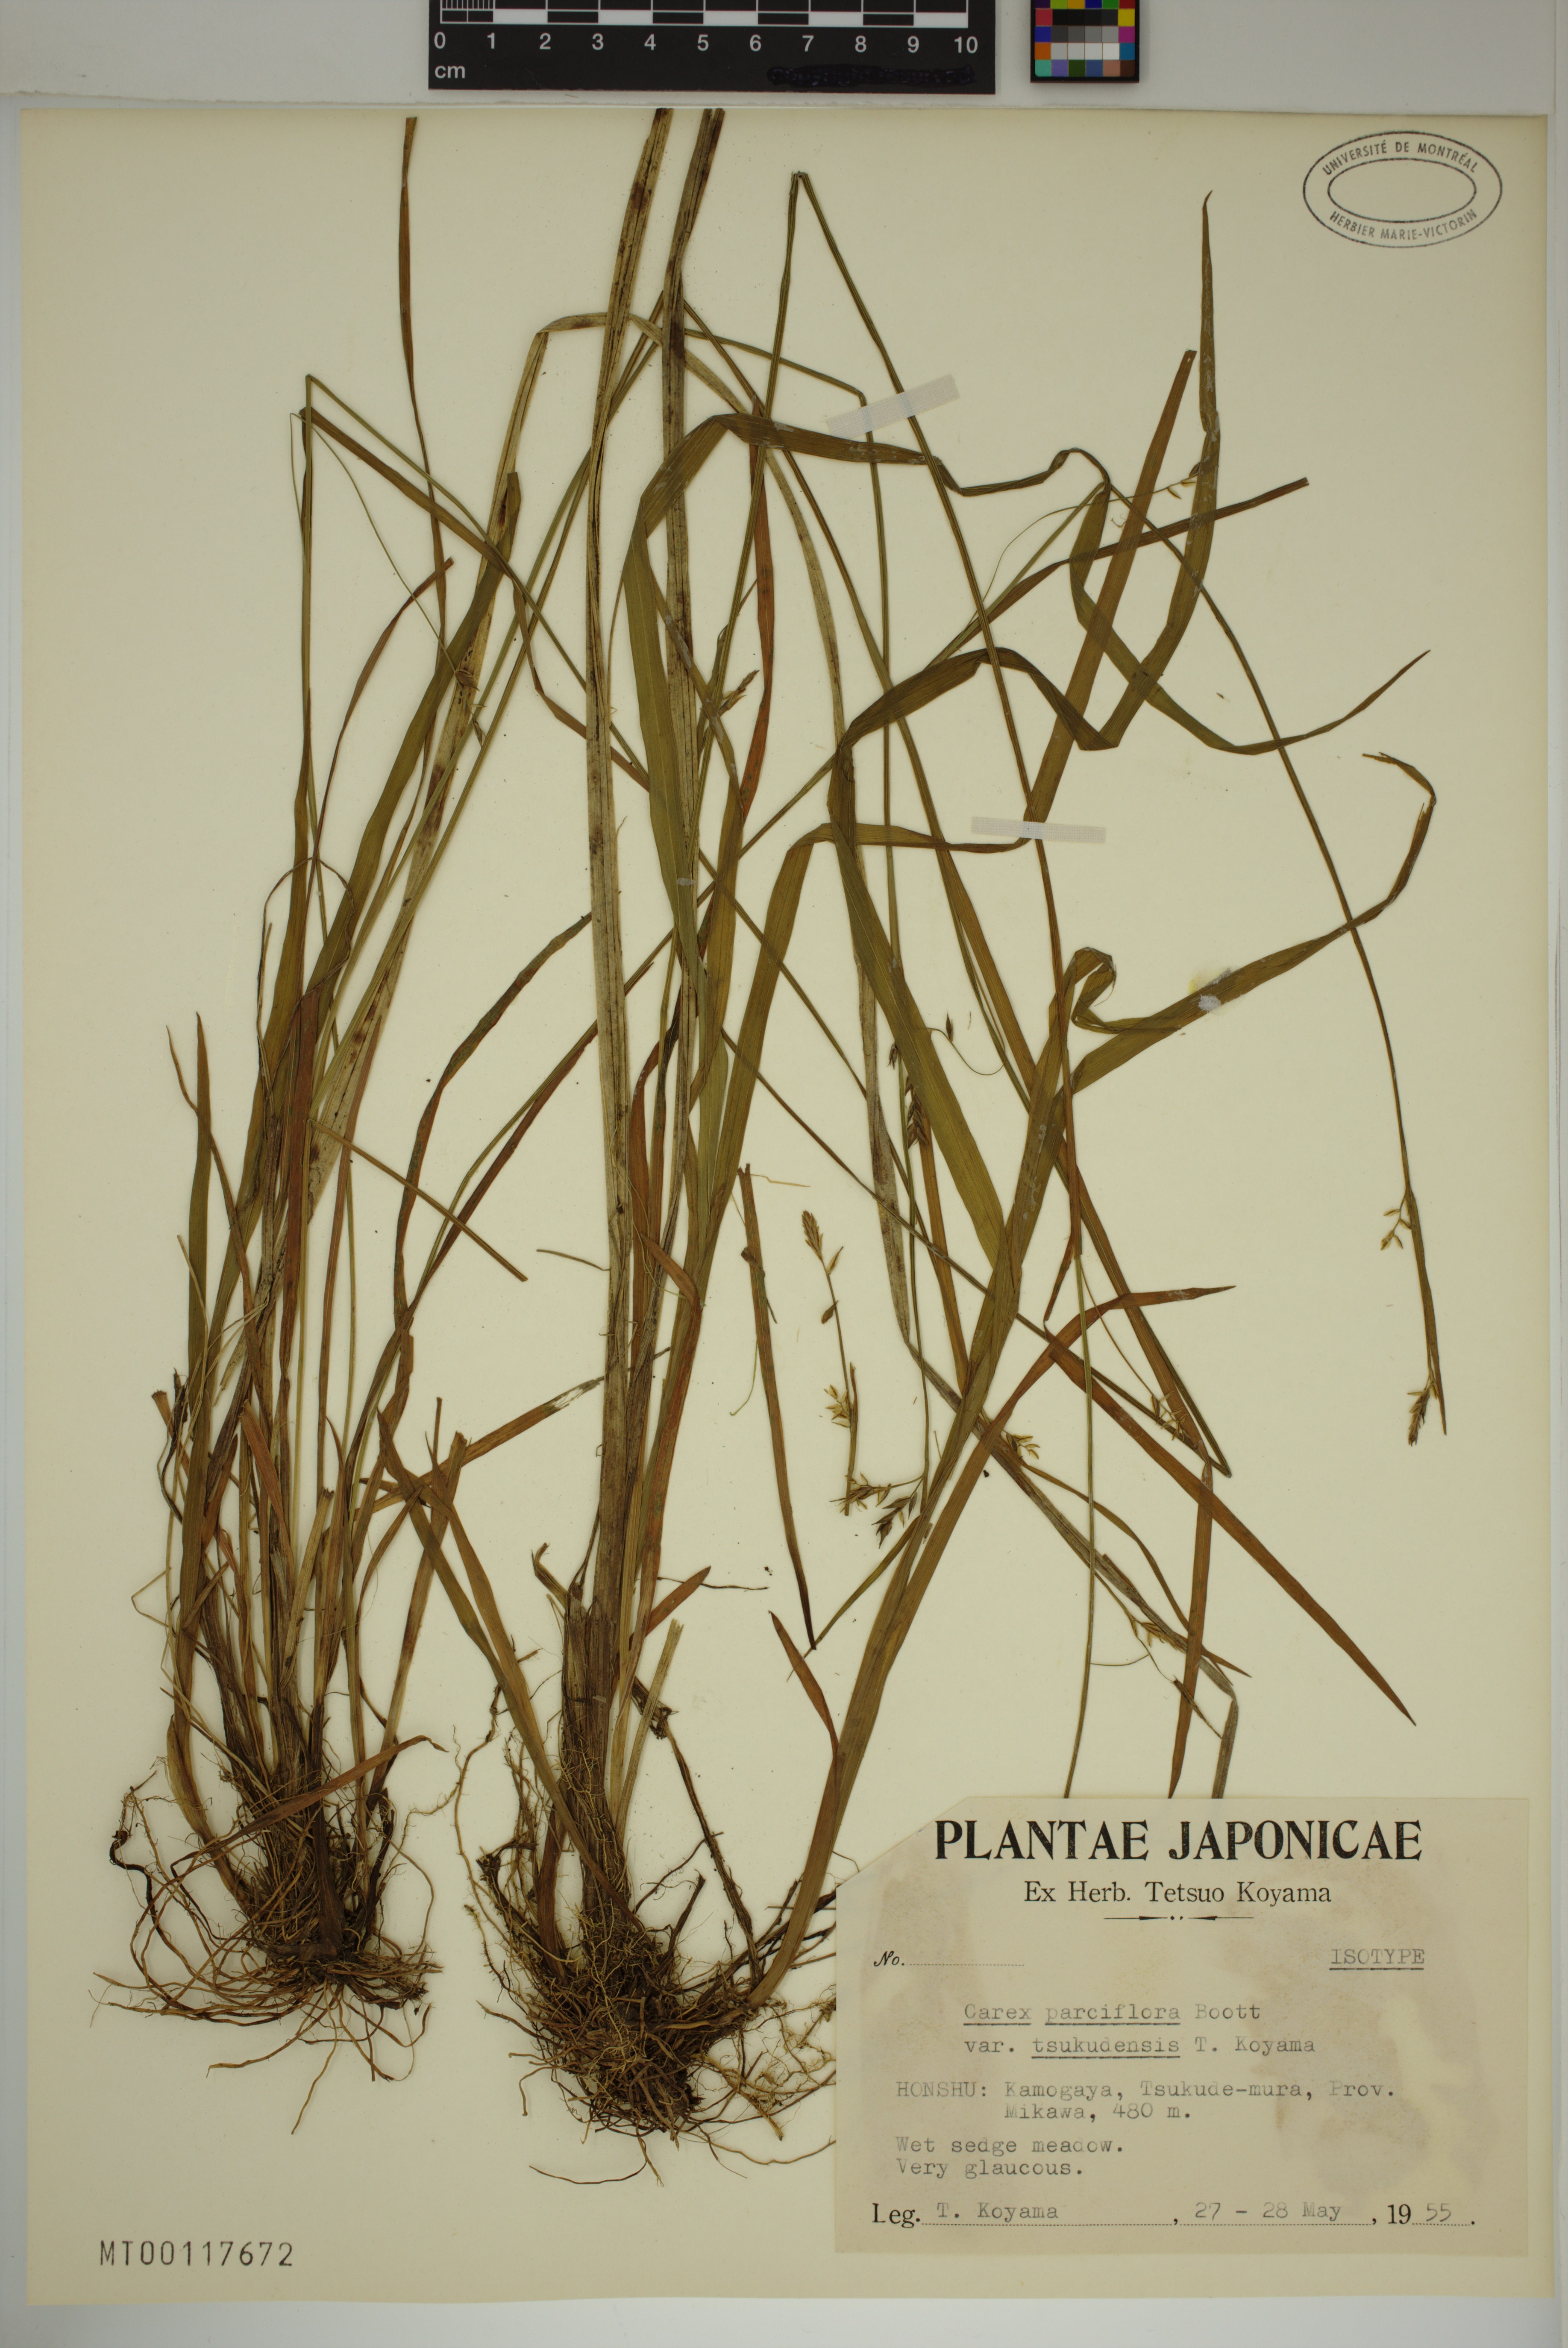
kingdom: Plantae
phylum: Tracheophyta
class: Liliopsida
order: Poales
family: Cyperaceae
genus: Carex
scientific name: Carex tsukudensis
